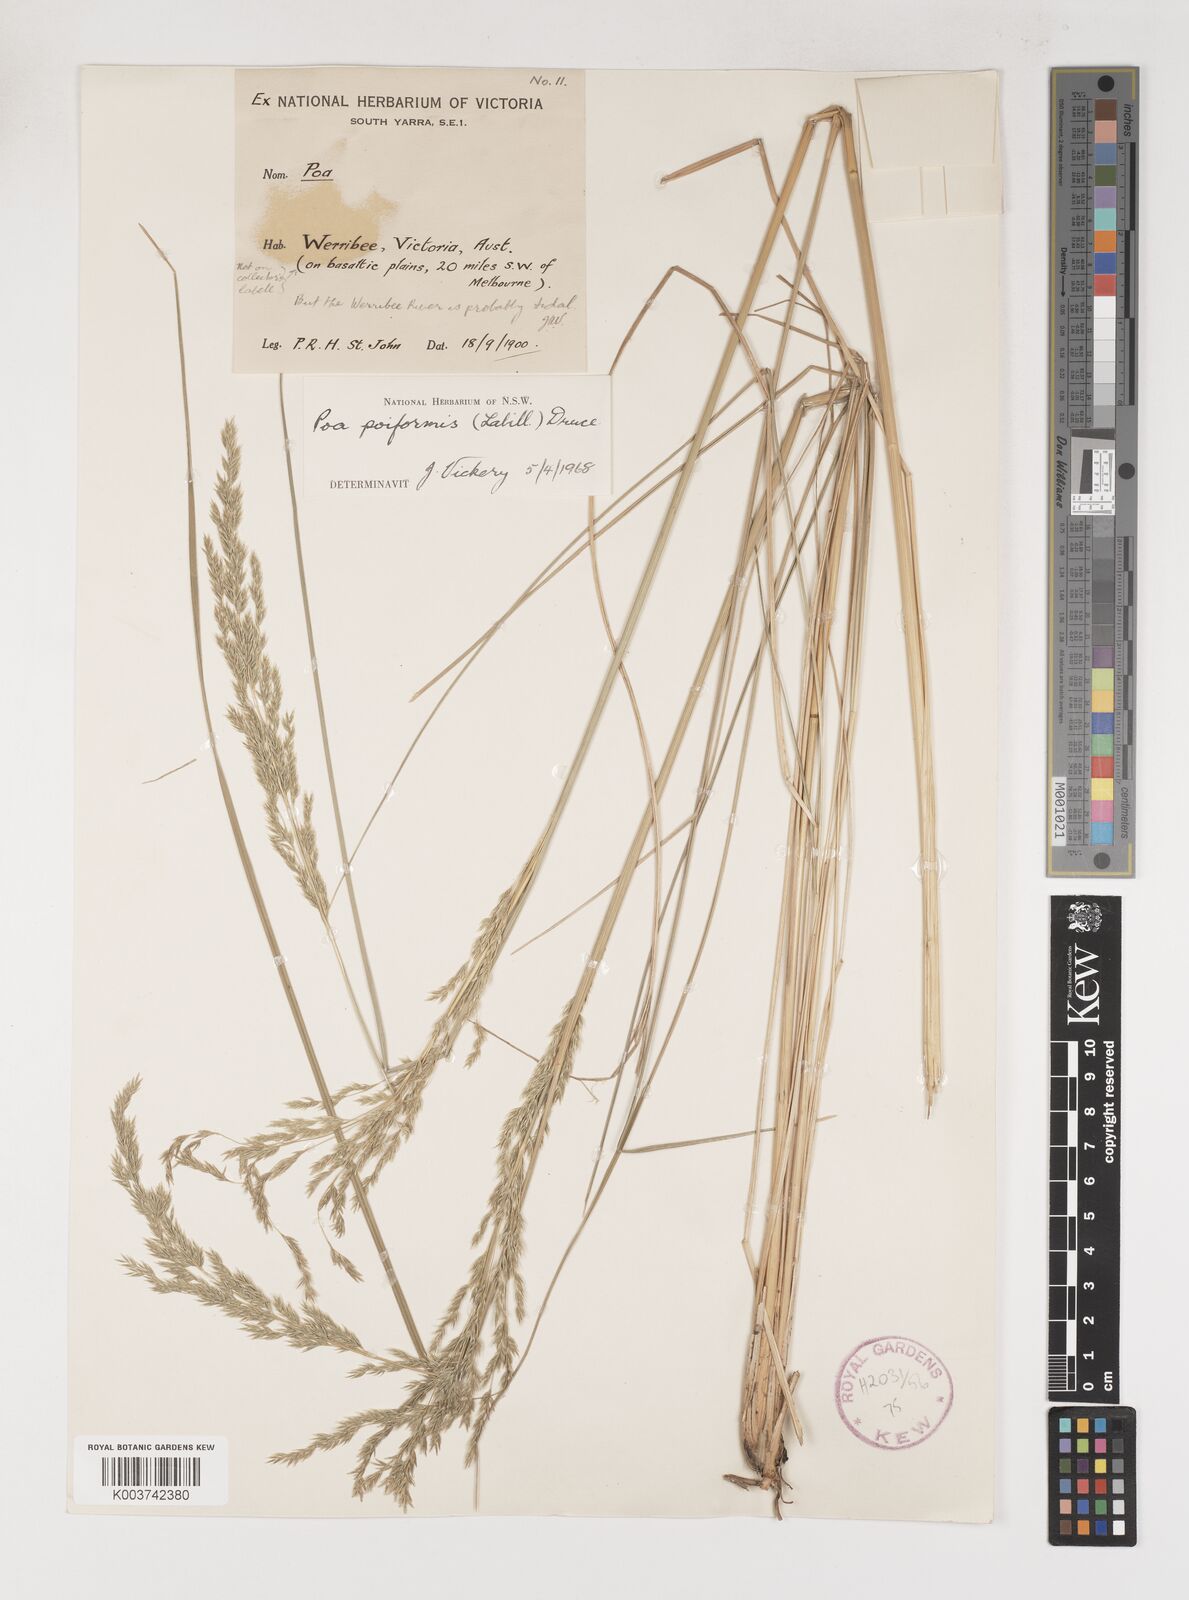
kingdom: Plantae
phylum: Tracheophyta
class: Liliopsida
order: Poales
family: Poaceae
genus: Poa
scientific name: Poa poiformis
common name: Tussock poa
